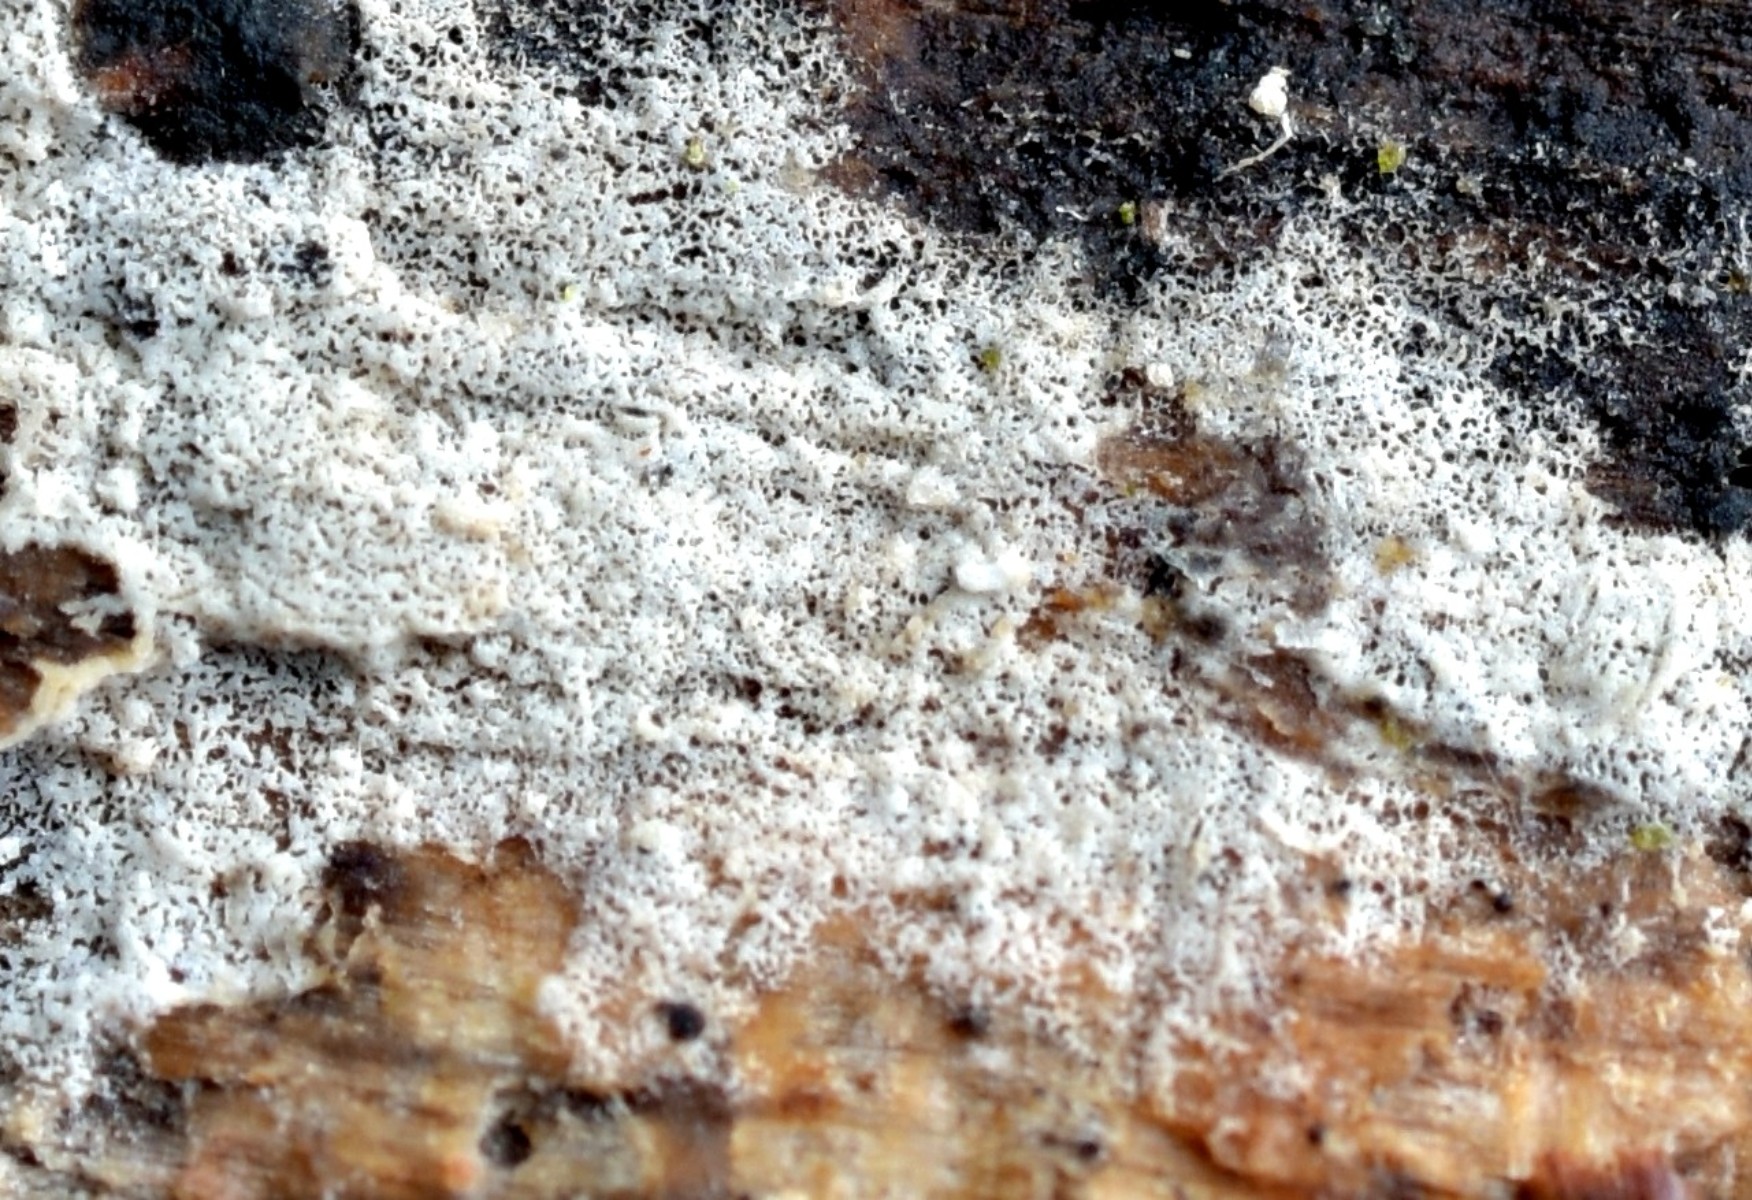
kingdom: Fungi
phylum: Basidiomycota
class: Agaricomycetes
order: Atheliales
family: Atheliaceae
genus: Athelia
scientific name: Athelia fibulata
